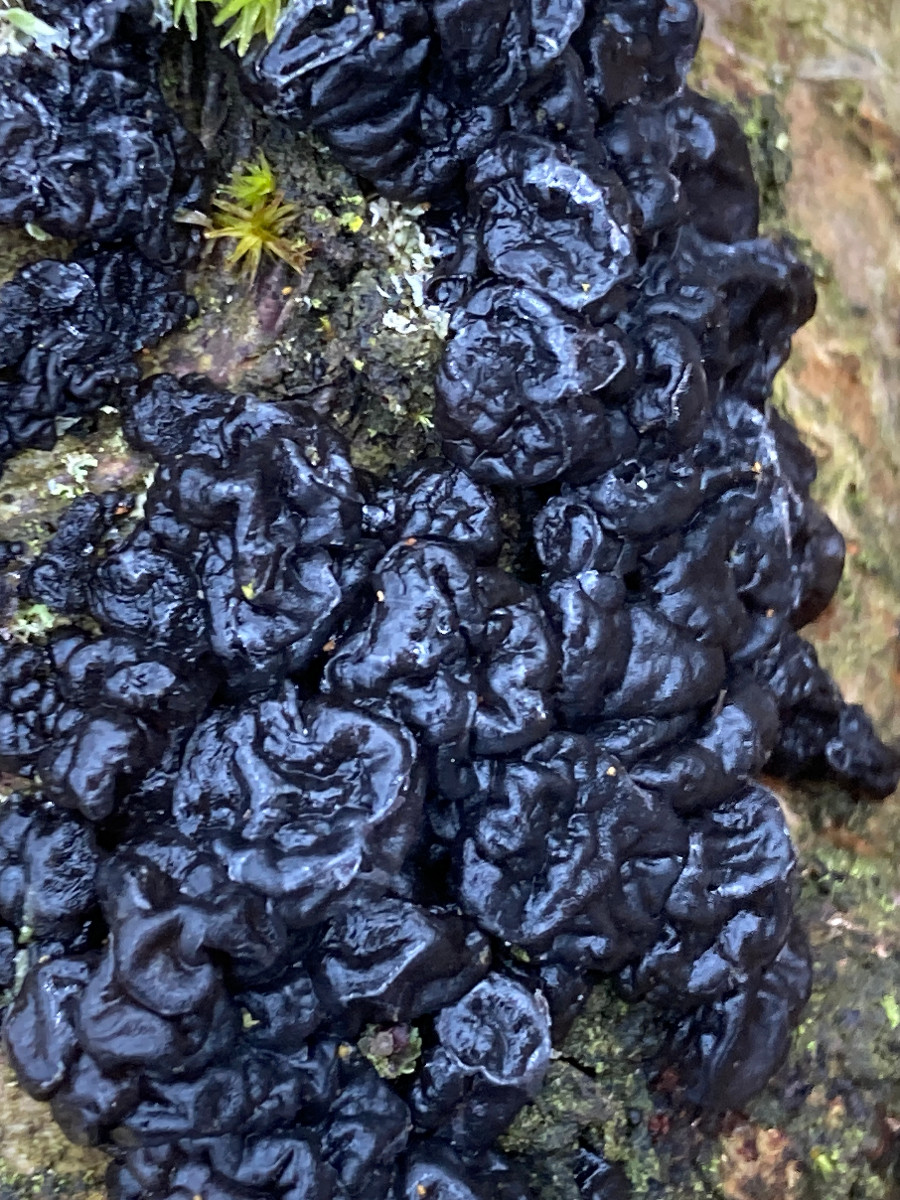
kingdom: Fungi
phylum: Basidiomycota
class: Agaricomycetes
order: Auriculariales
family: Auriculariaceae
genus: Exidia
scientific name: Exidia nigricans
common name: almindelig bævretop
